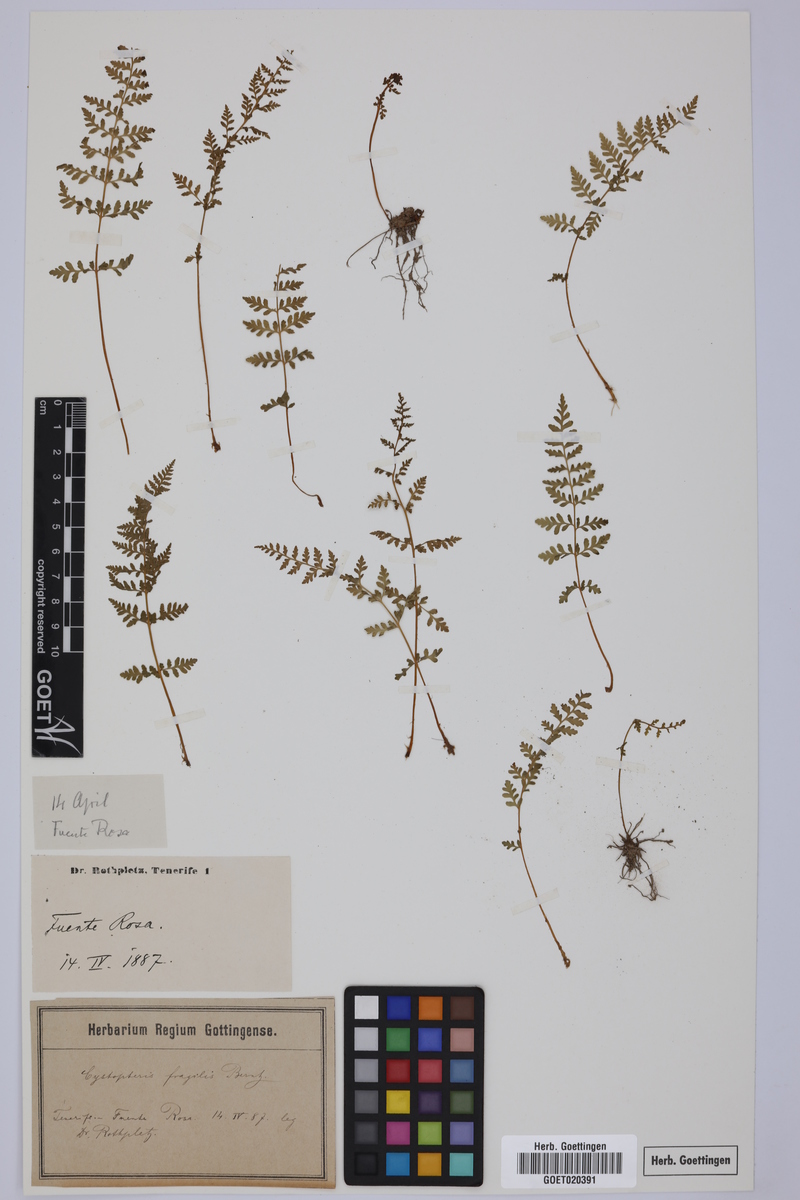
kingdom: Plantae
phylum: Tracheophyta
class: Polypodiopsida
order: Polypodiales
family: Cystopteridaceae
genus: Cystopteris
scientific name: Cystopteris fragilis
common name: Brittle bladder fern
